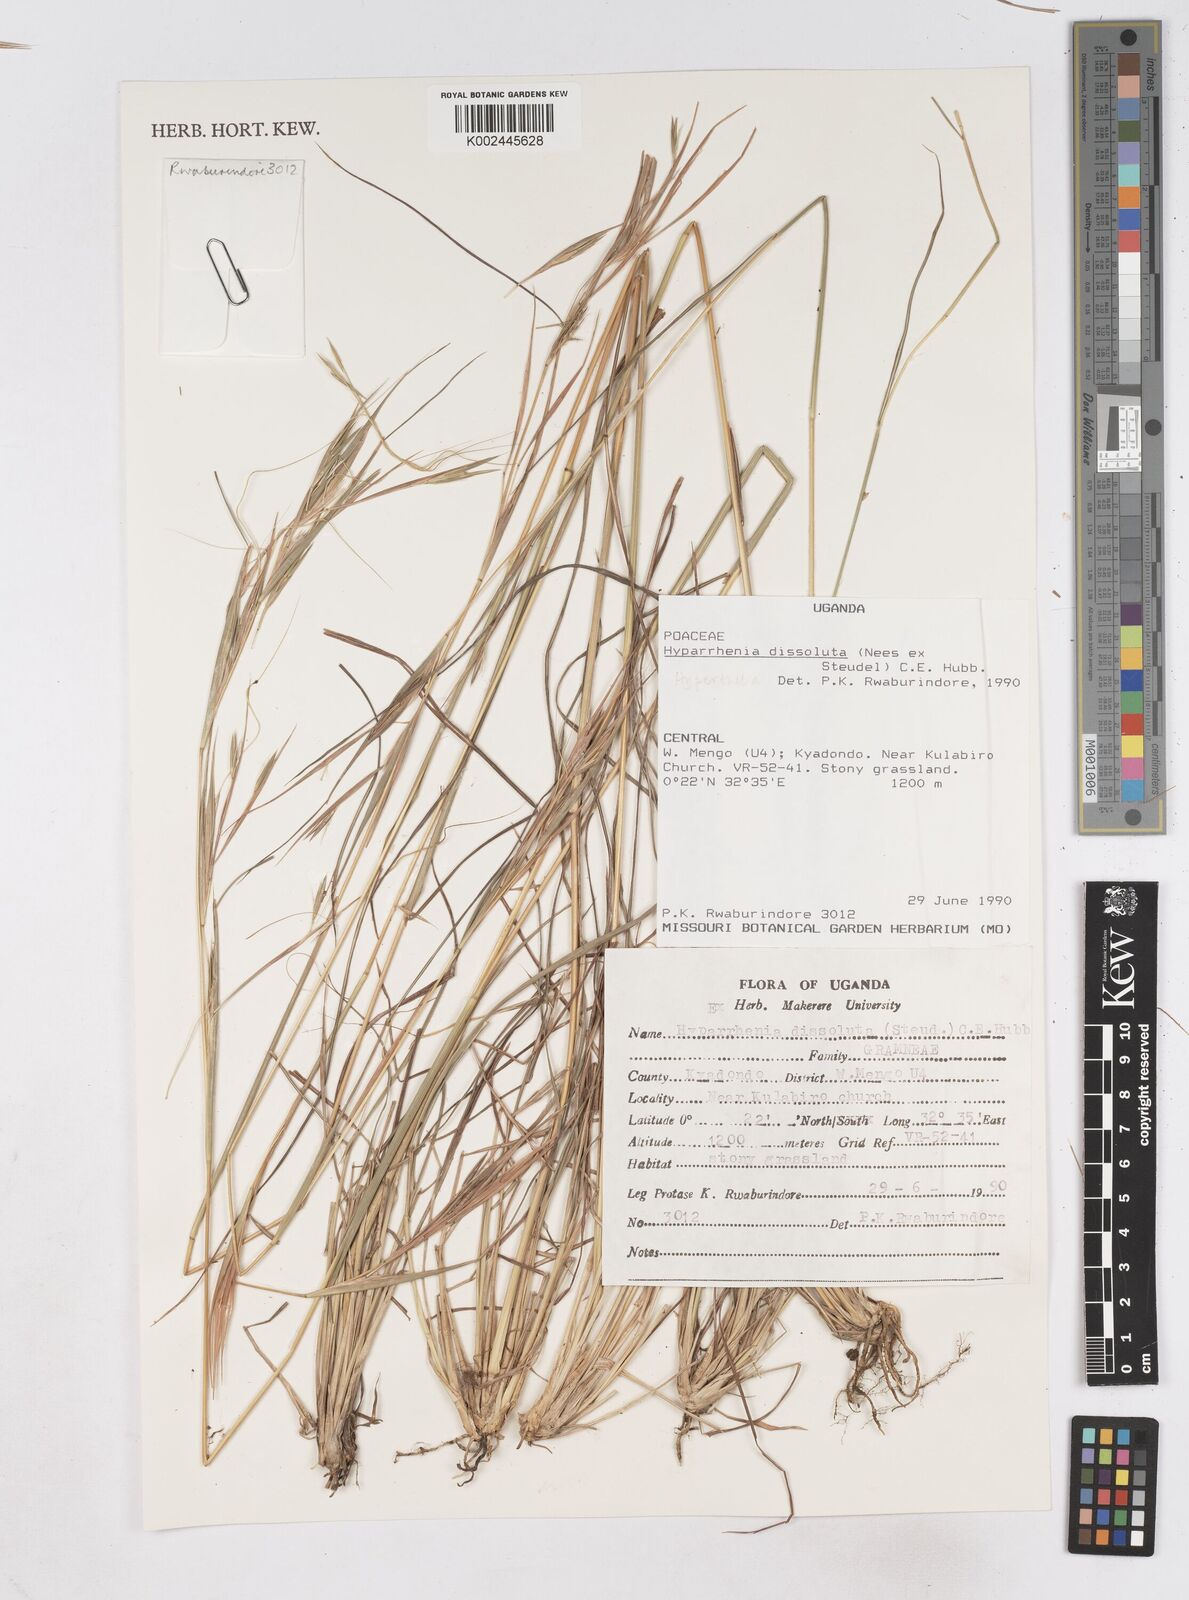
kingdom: Plantae
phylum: Tracheophyta
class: Liliopsida
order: Poales
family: Poaceae
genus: Hyperthelia
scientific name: Hyperthelia dissoluta
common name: Yellow thatching grass
